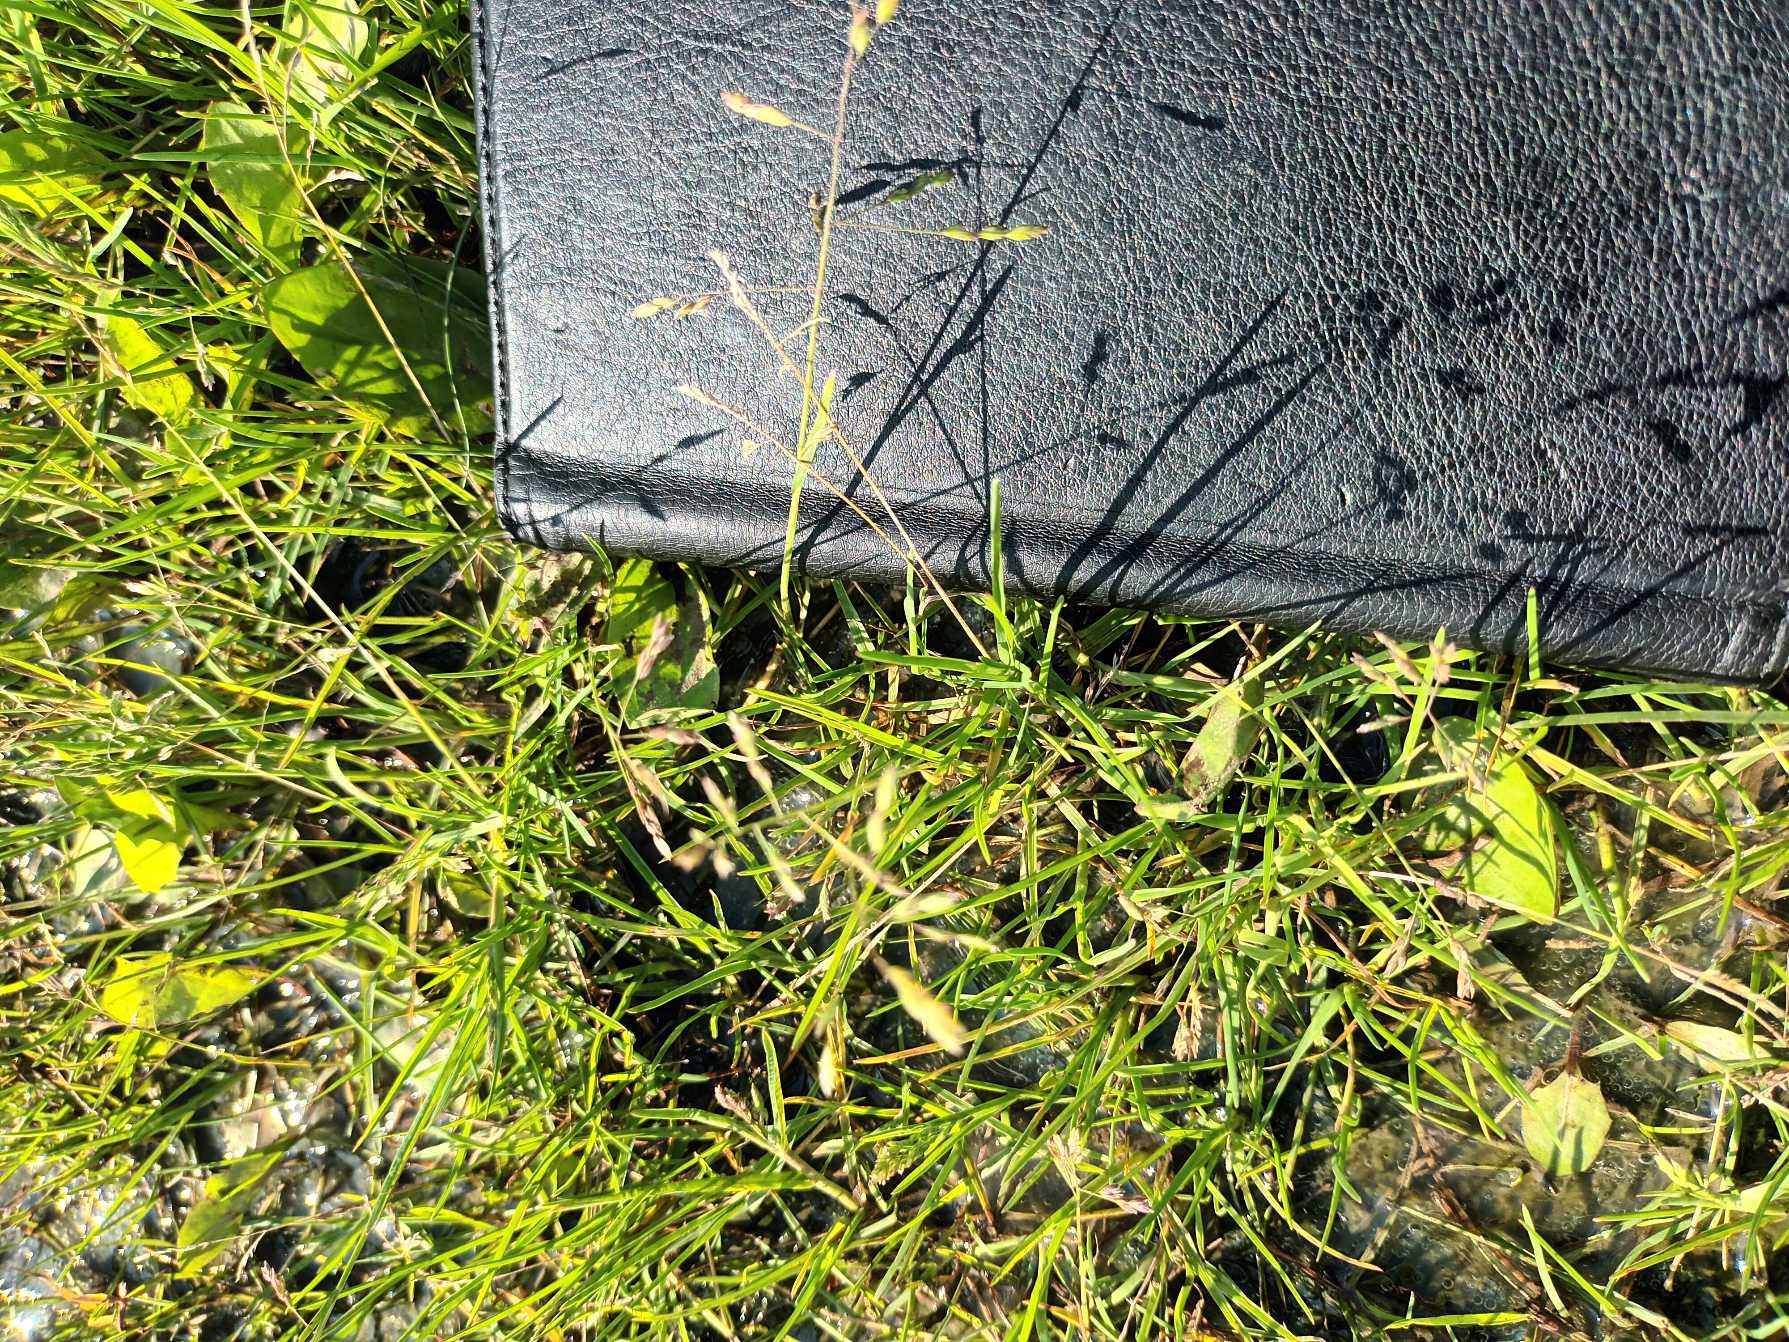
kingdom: Plantae
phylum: Tracheophyta
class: Liliopsida
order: Poales
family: Poaceae
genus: Poa
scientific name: Poa annua
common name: Enårig rapgræs
